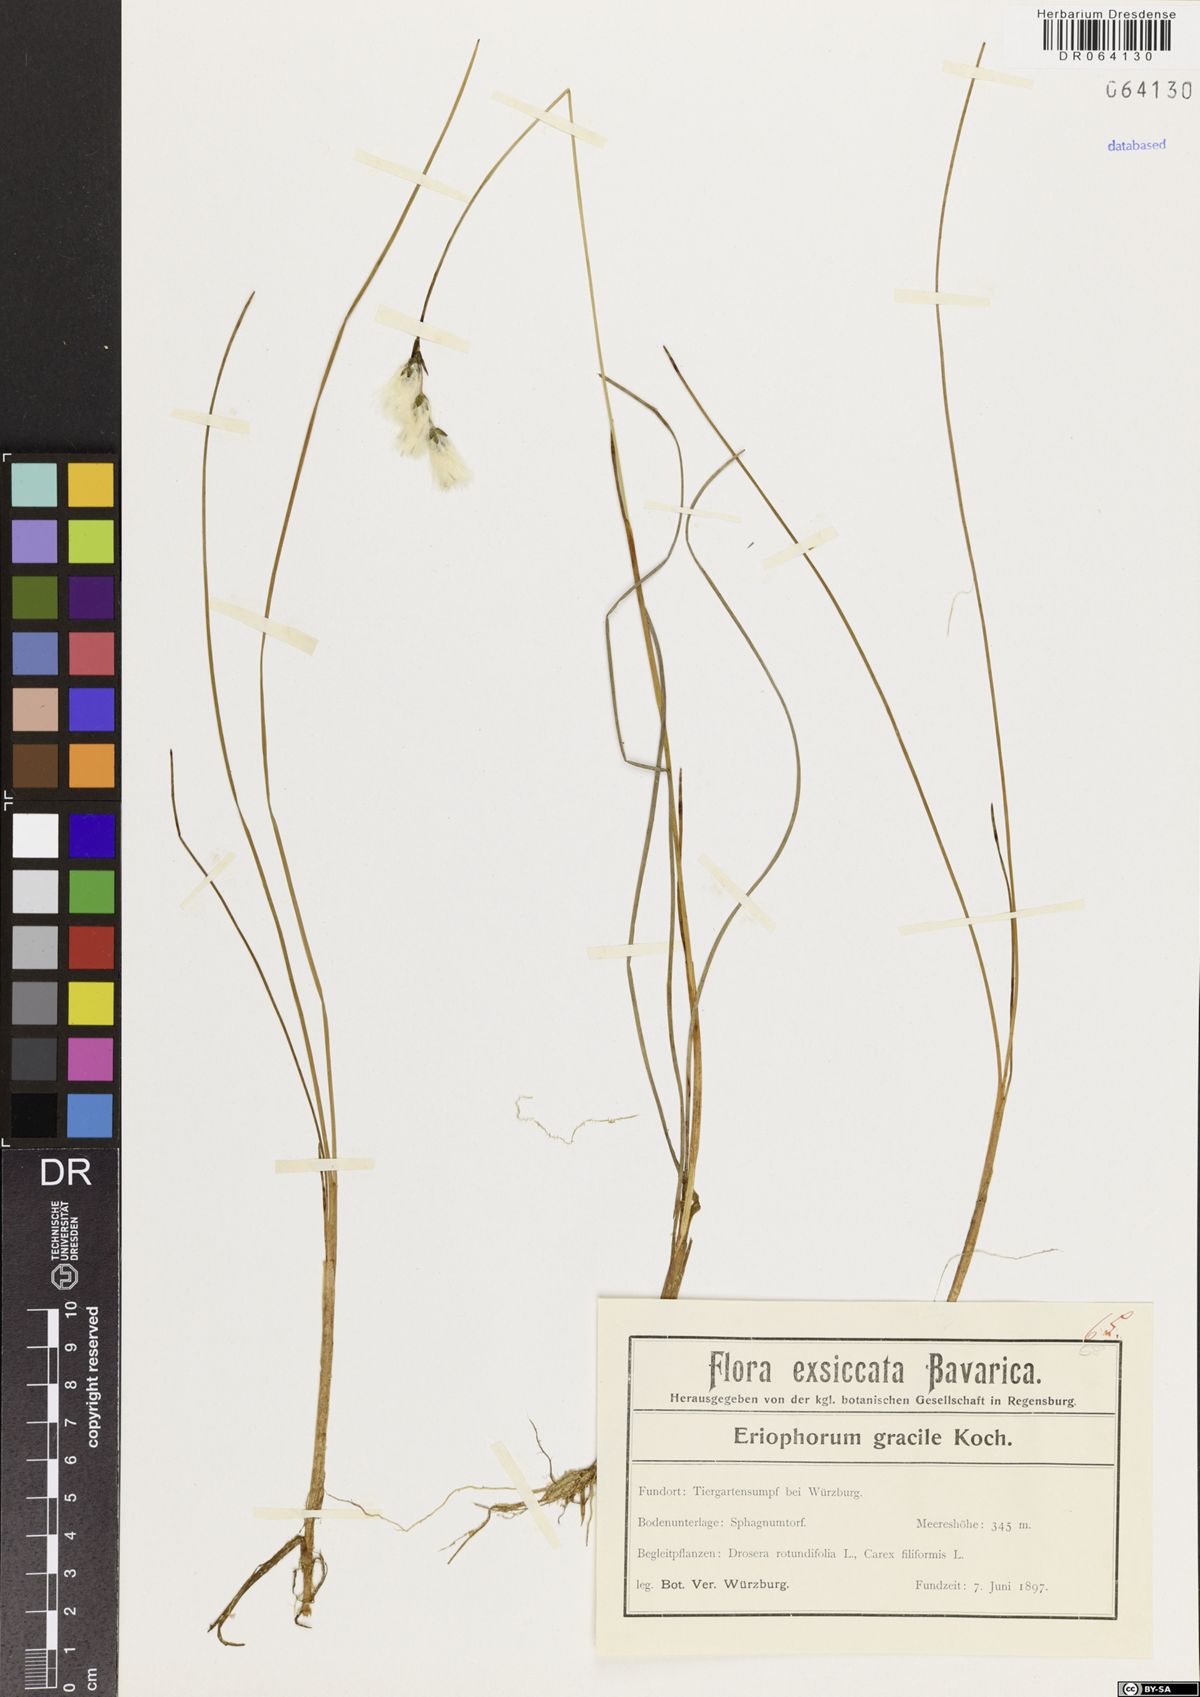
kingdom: Plantae
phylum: Tracheophyta
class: Liliopsida
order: Poales
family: Cyperaceae
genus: Eriophorum
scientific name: Eriophorum gracile
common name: Slender cottongrass
